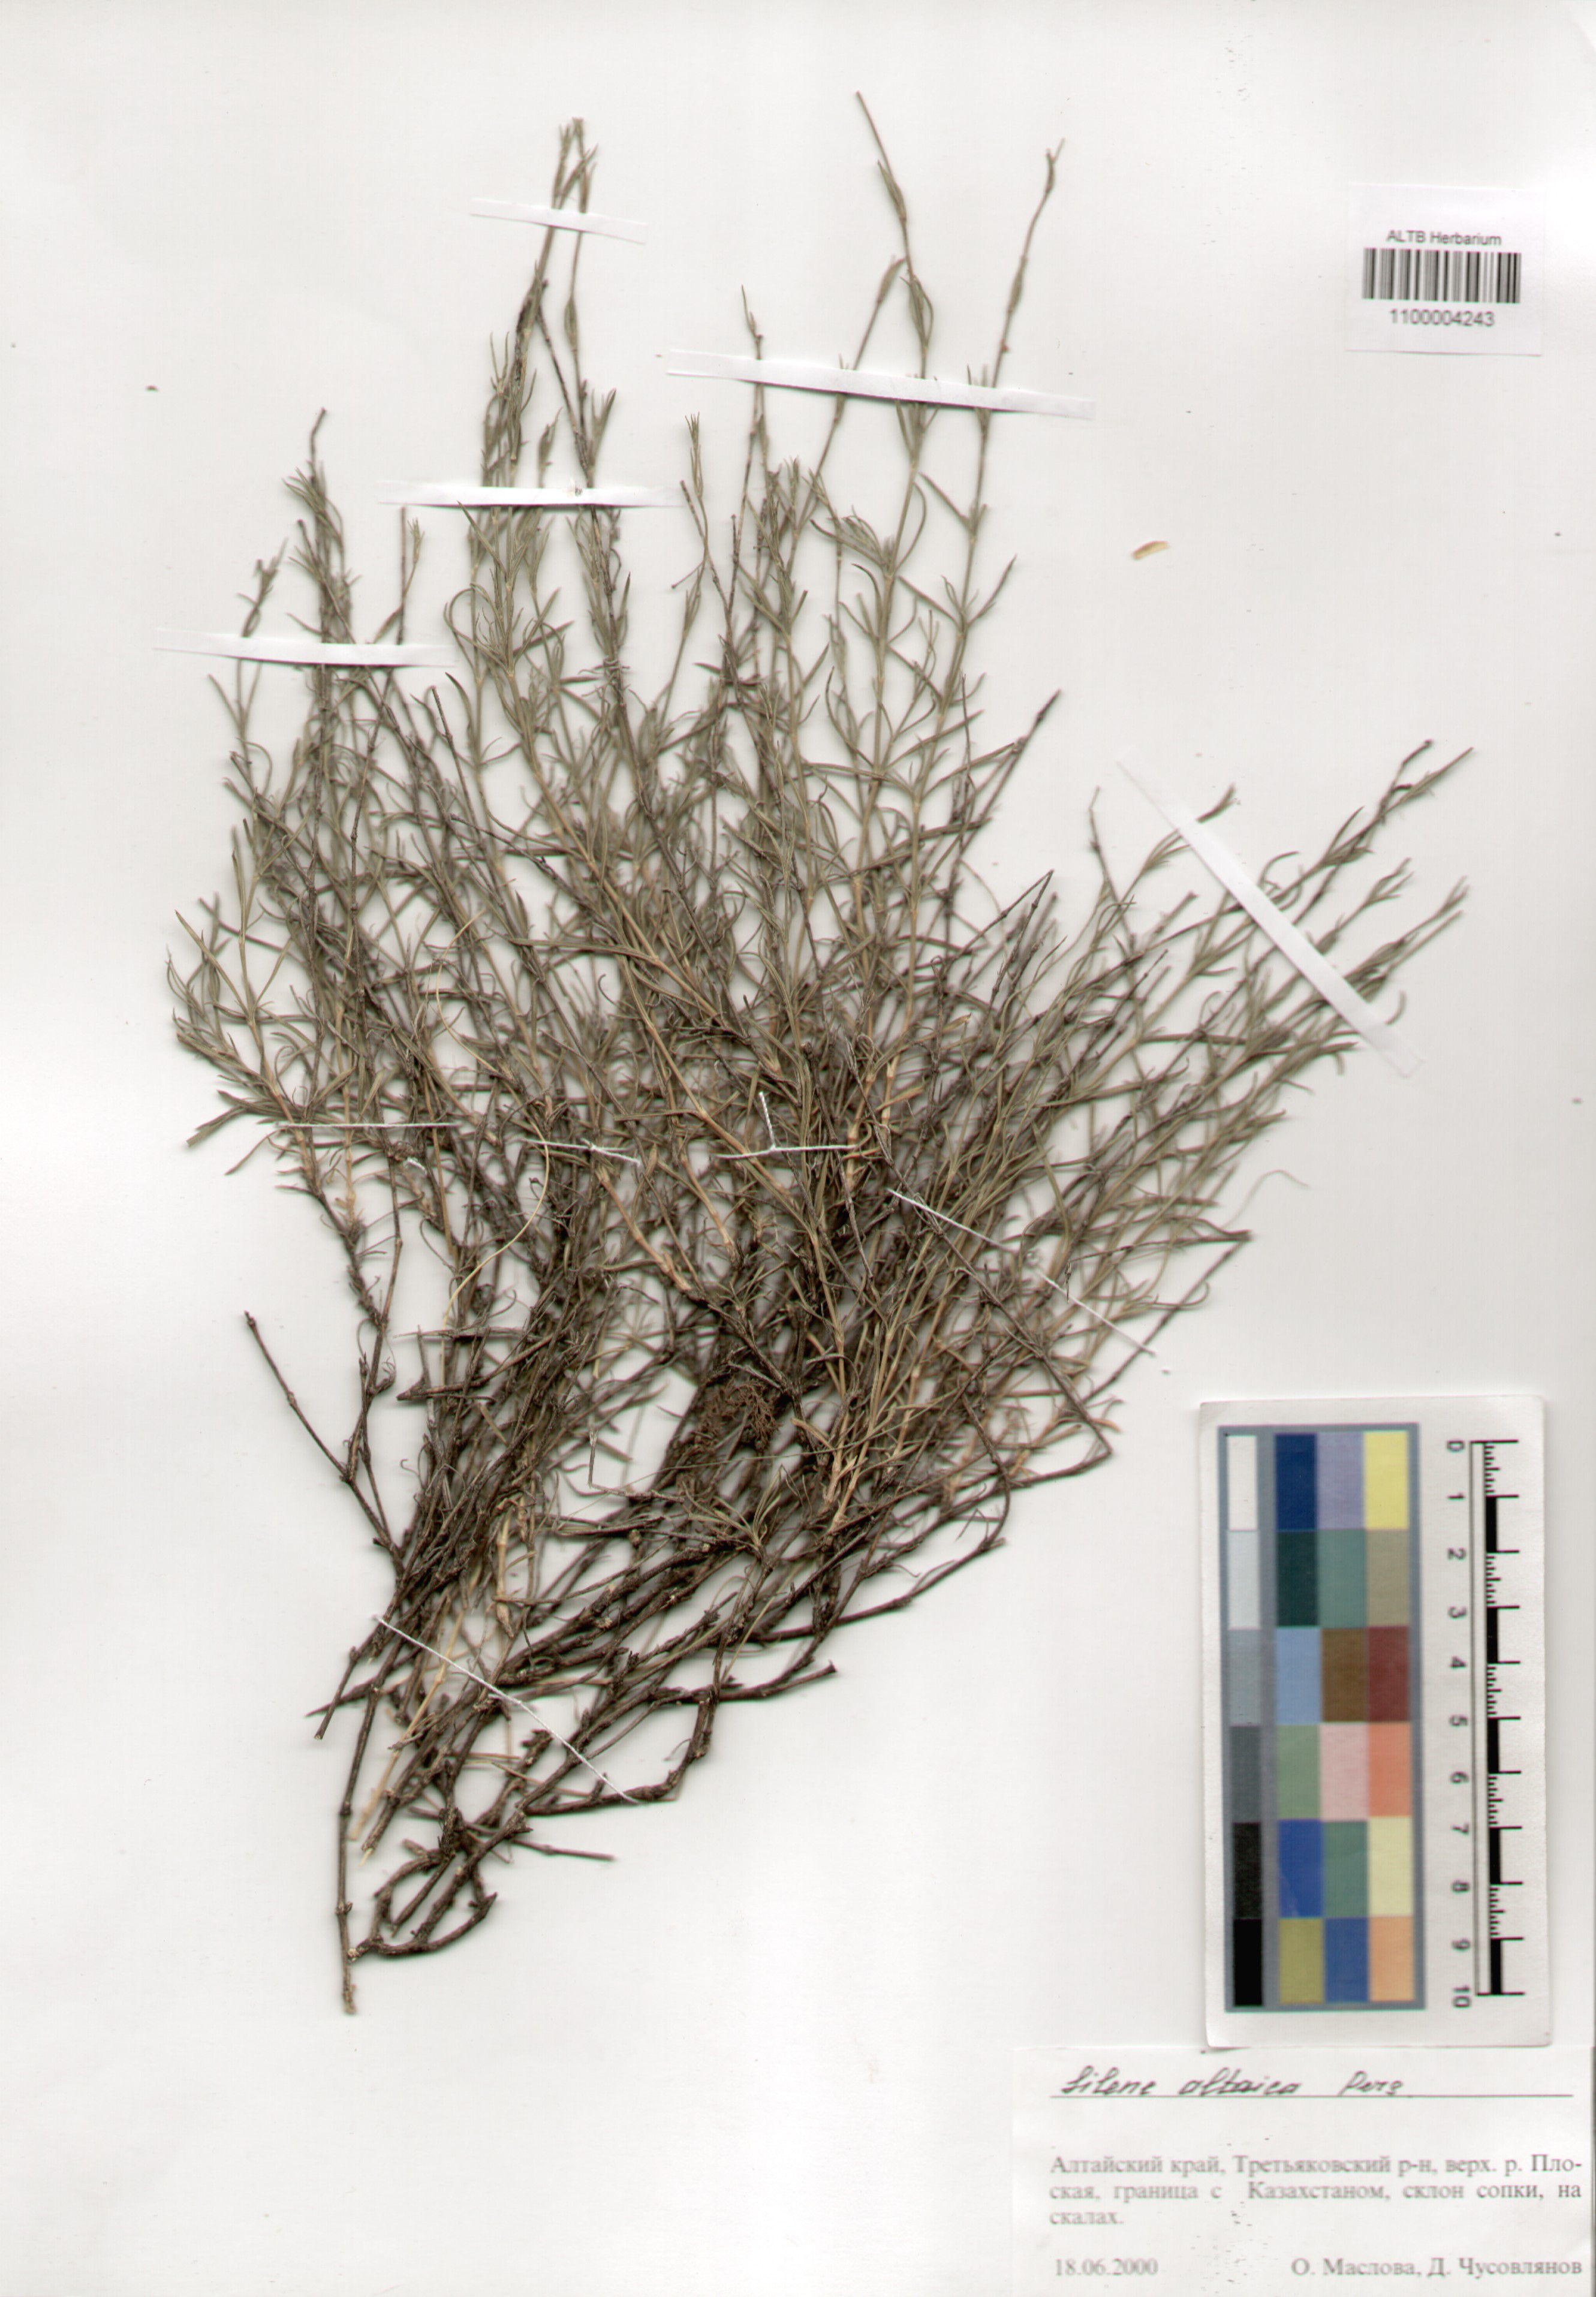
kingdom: Plantae
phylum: Tracheophyta
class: Magnoliopsida
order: Caryophyllales
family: Caryophyllaceae
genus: Silene
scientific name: Silene altaica
